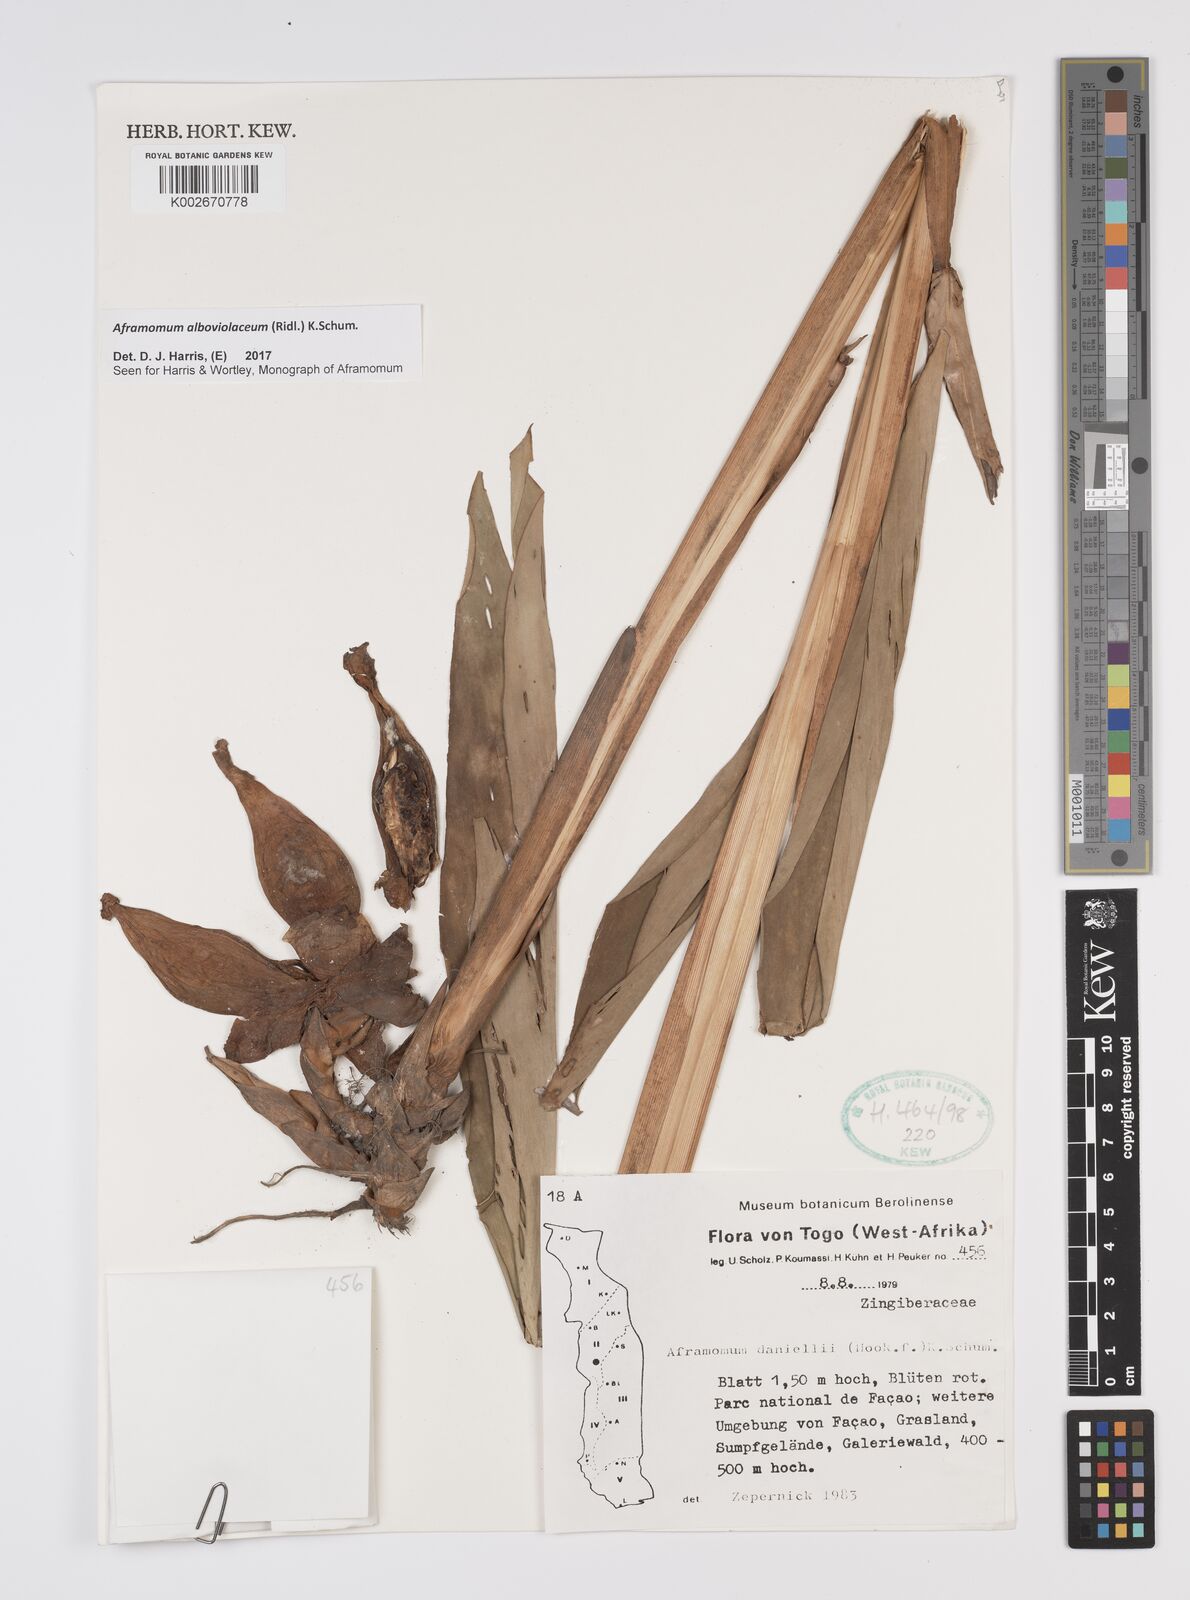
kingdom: Plantae
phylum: Tracheophyta
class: Liliopsida
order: Zingiberales
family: Zingiberaceae
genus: Aframomum
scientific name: Aframomum alboviolaceum
